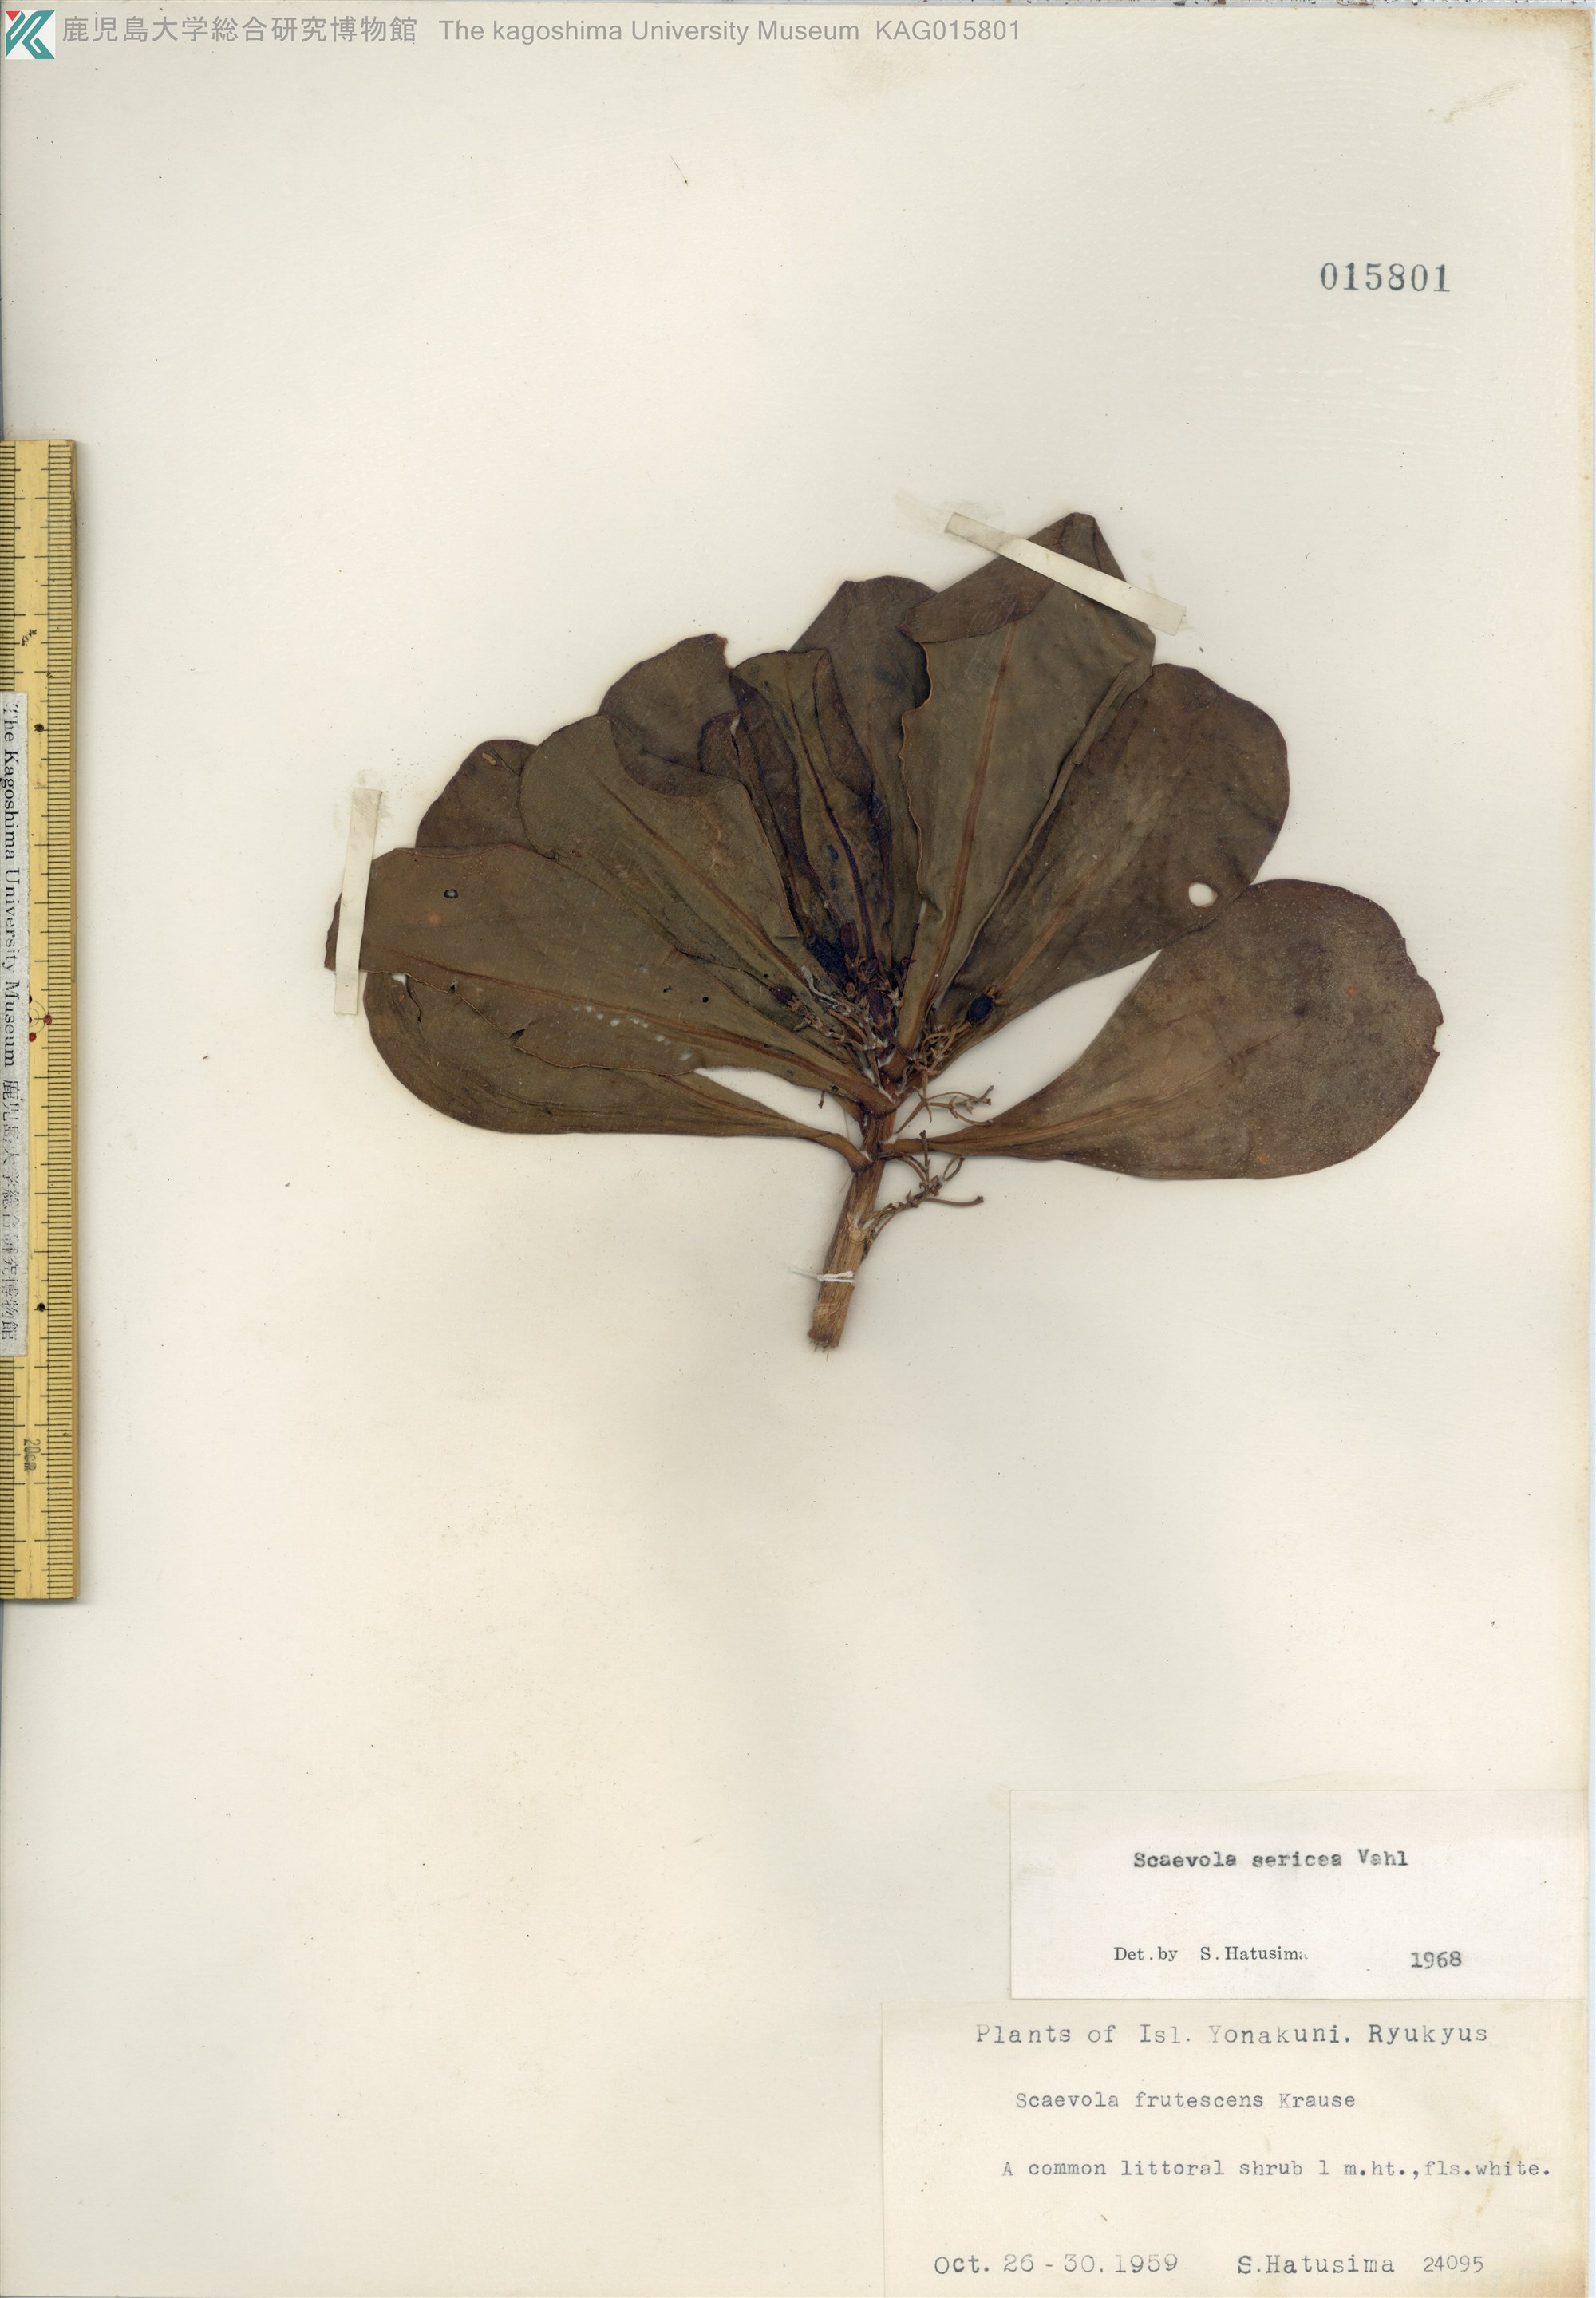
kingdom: Plantae
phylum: Tracheophyta
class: Magnoliopsida
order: Asterales
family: Goodeniaceae
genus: Scaevola
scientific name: Scaevola taccada
